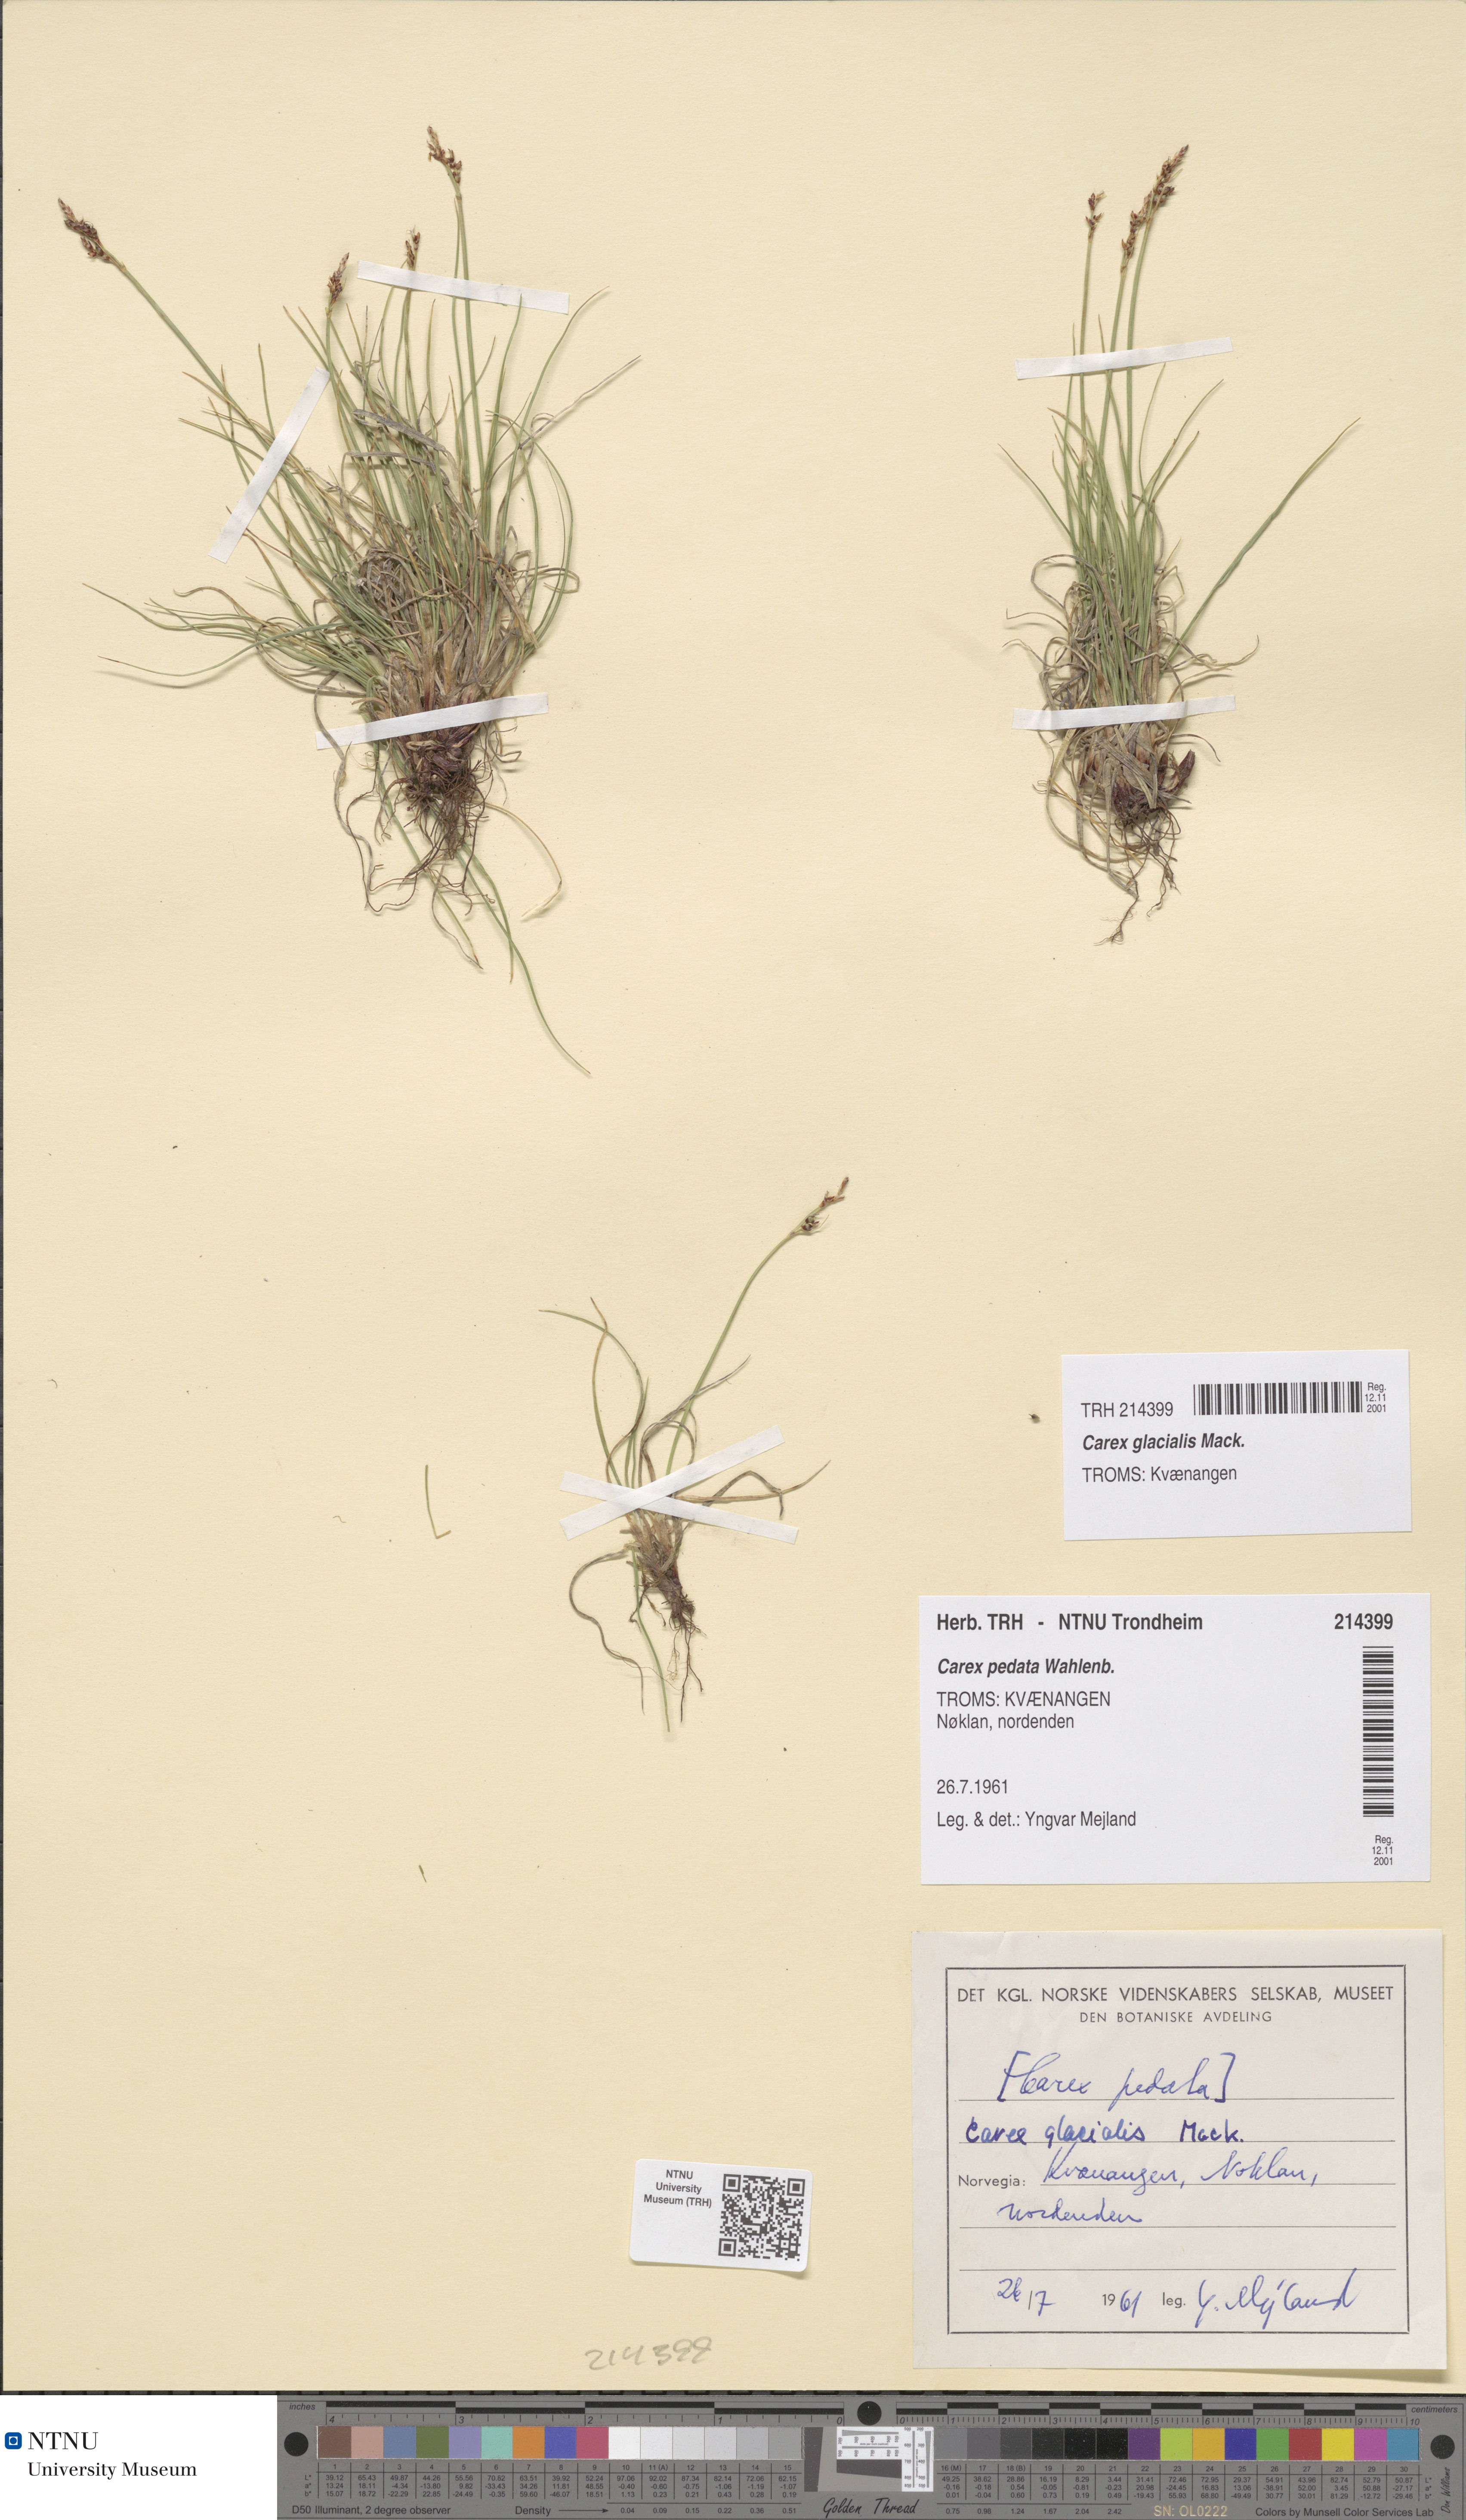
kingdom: Plantae
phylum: Tracheophyta
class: Liliopsida
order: Poales
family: Cyperaceae
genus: Carex
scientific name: Carex glacialis
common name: Newfoundland sedge
